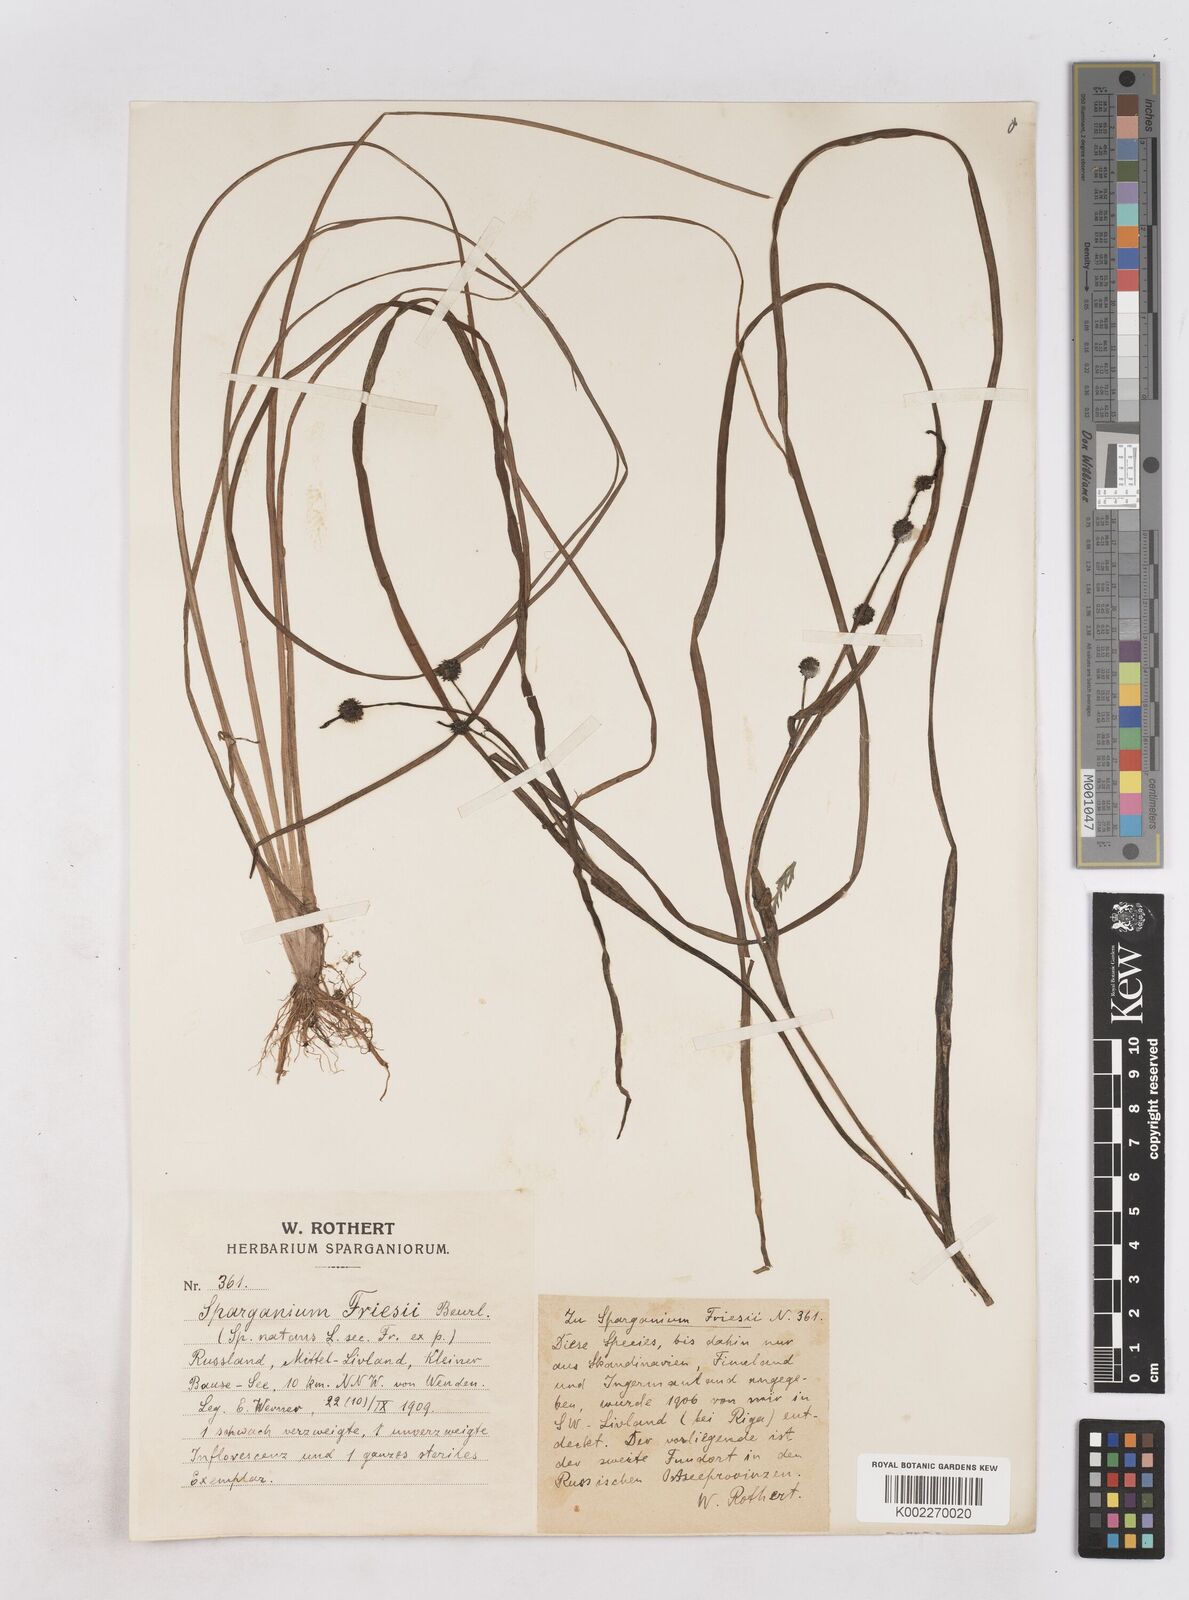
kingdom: Plantae
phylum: Tracheophyta
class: Liliopsida
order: Poales
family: Typhaceae
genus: Sparganium
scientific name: Sparganium gramineum
